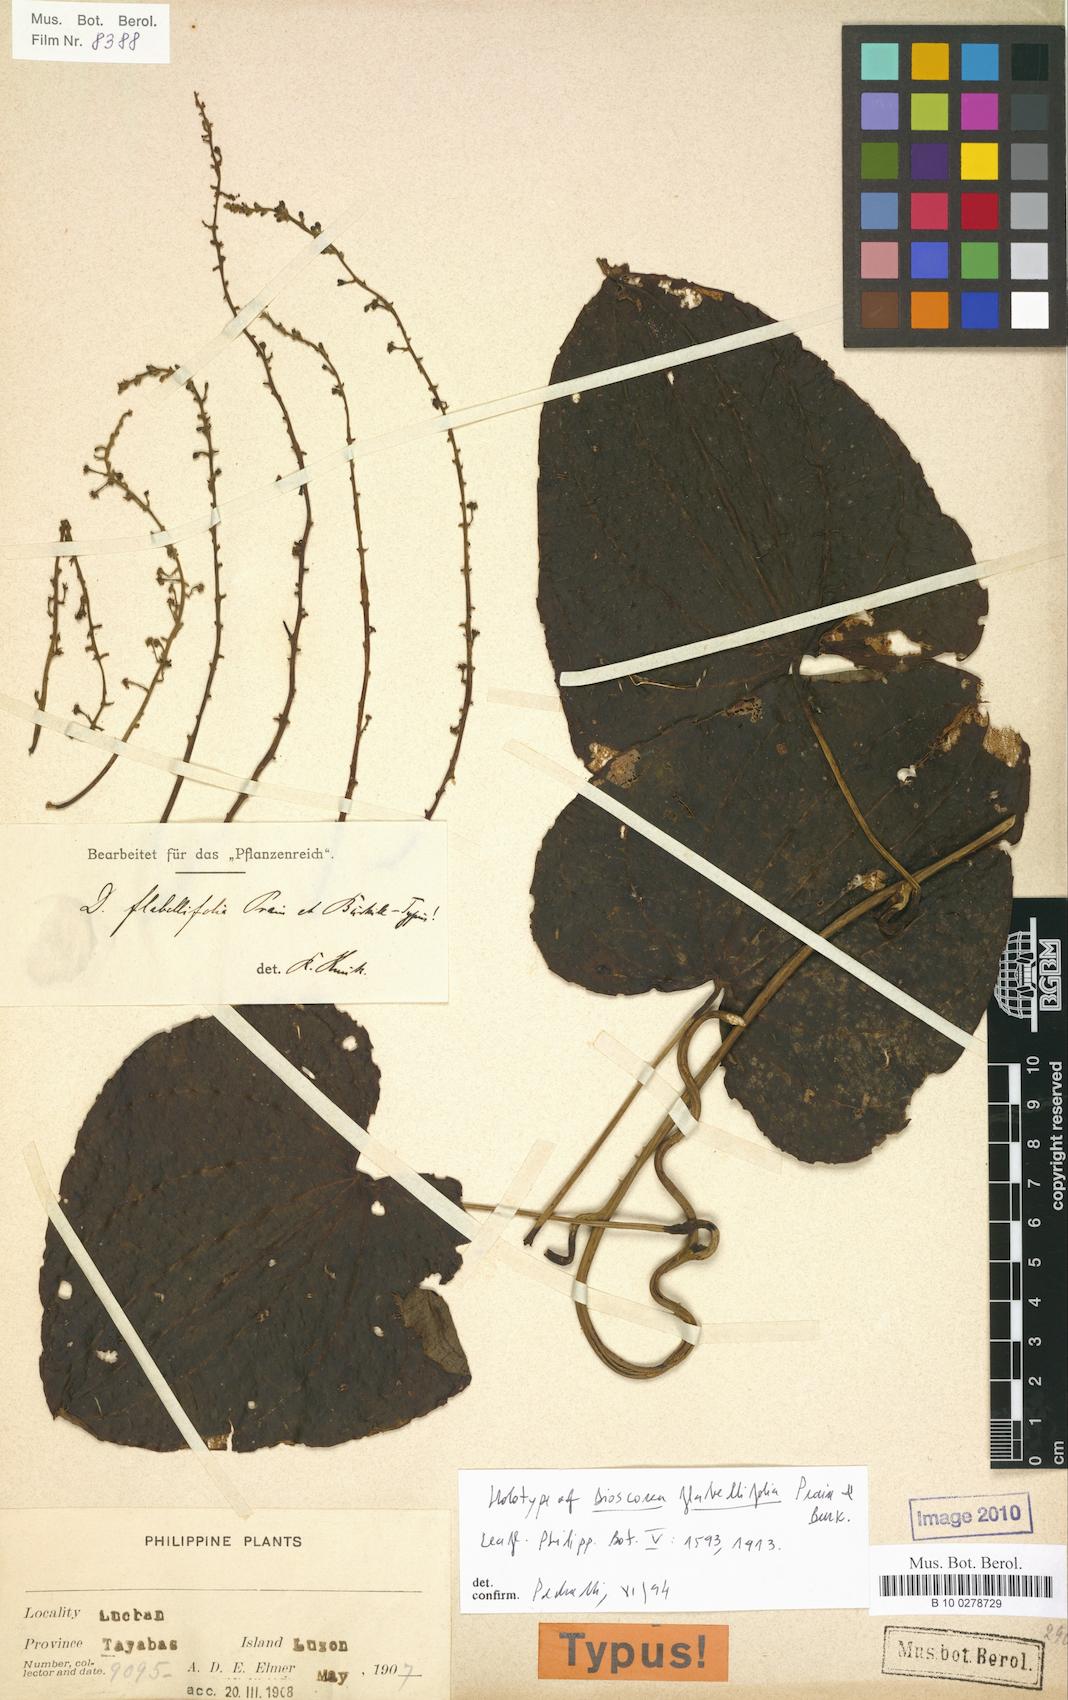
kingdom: Plantae
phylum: Tracheophyta
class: Liliopsida
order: Dioscoreales
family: Dioscoreaceae
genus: Dioscorea
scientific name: Dioscorea flabellifolia
